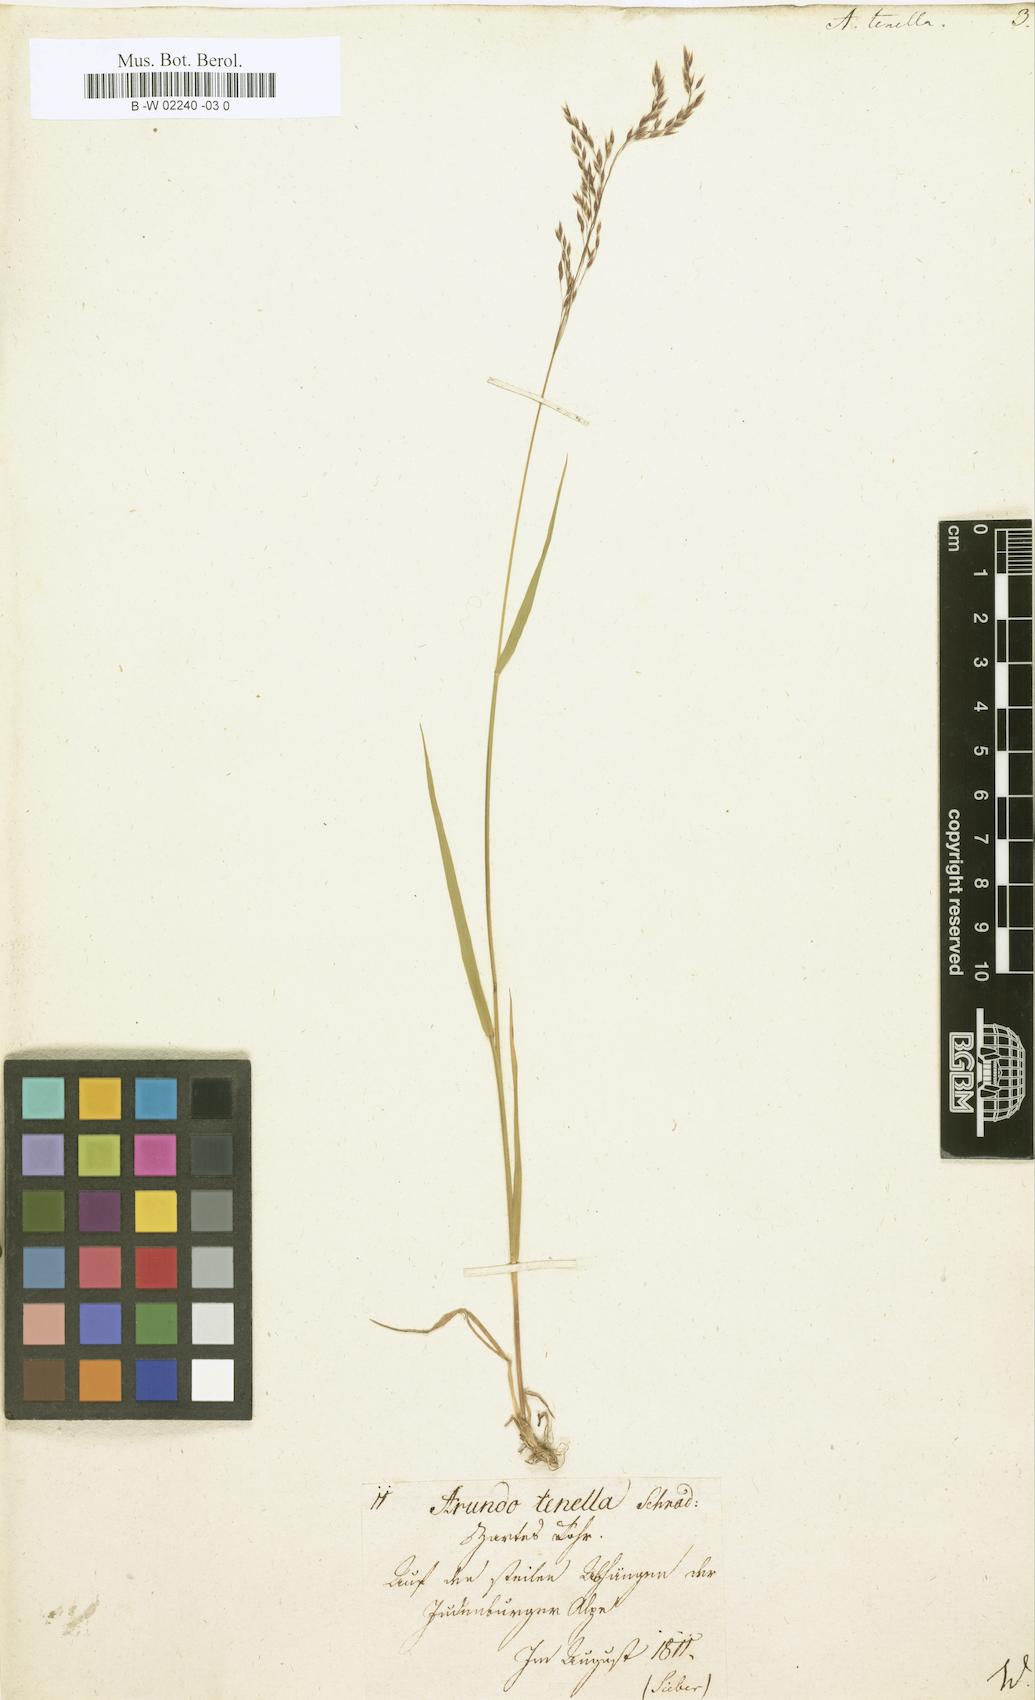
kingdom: Plantae
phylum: Tracheophyta
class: Liliopsida
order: Poales
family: Poaceae
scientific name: Poaceae
